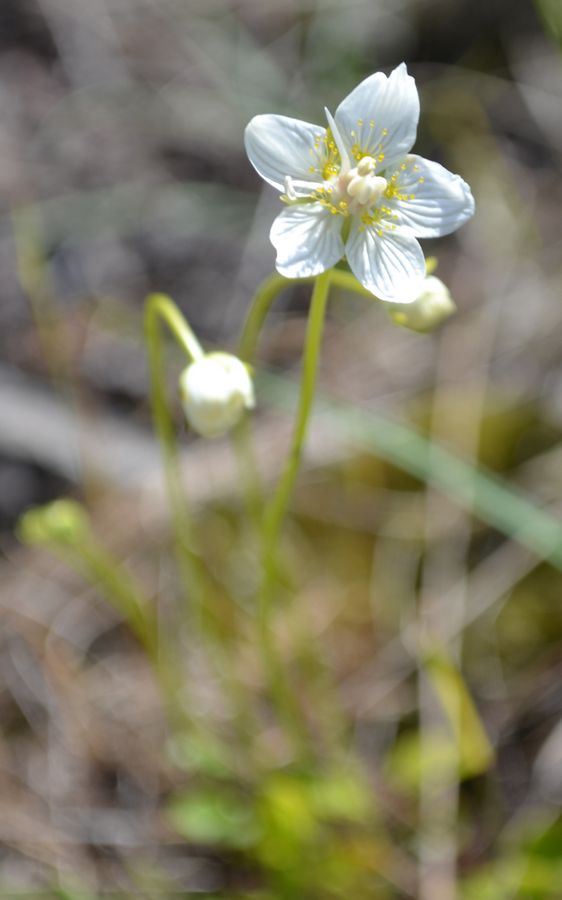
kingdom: Plantae
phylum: Tracheophyta
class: Magnoliopsida
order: Celastrales
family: Parnassiaceae
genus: Parnassia
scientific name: Parnassia palustris
